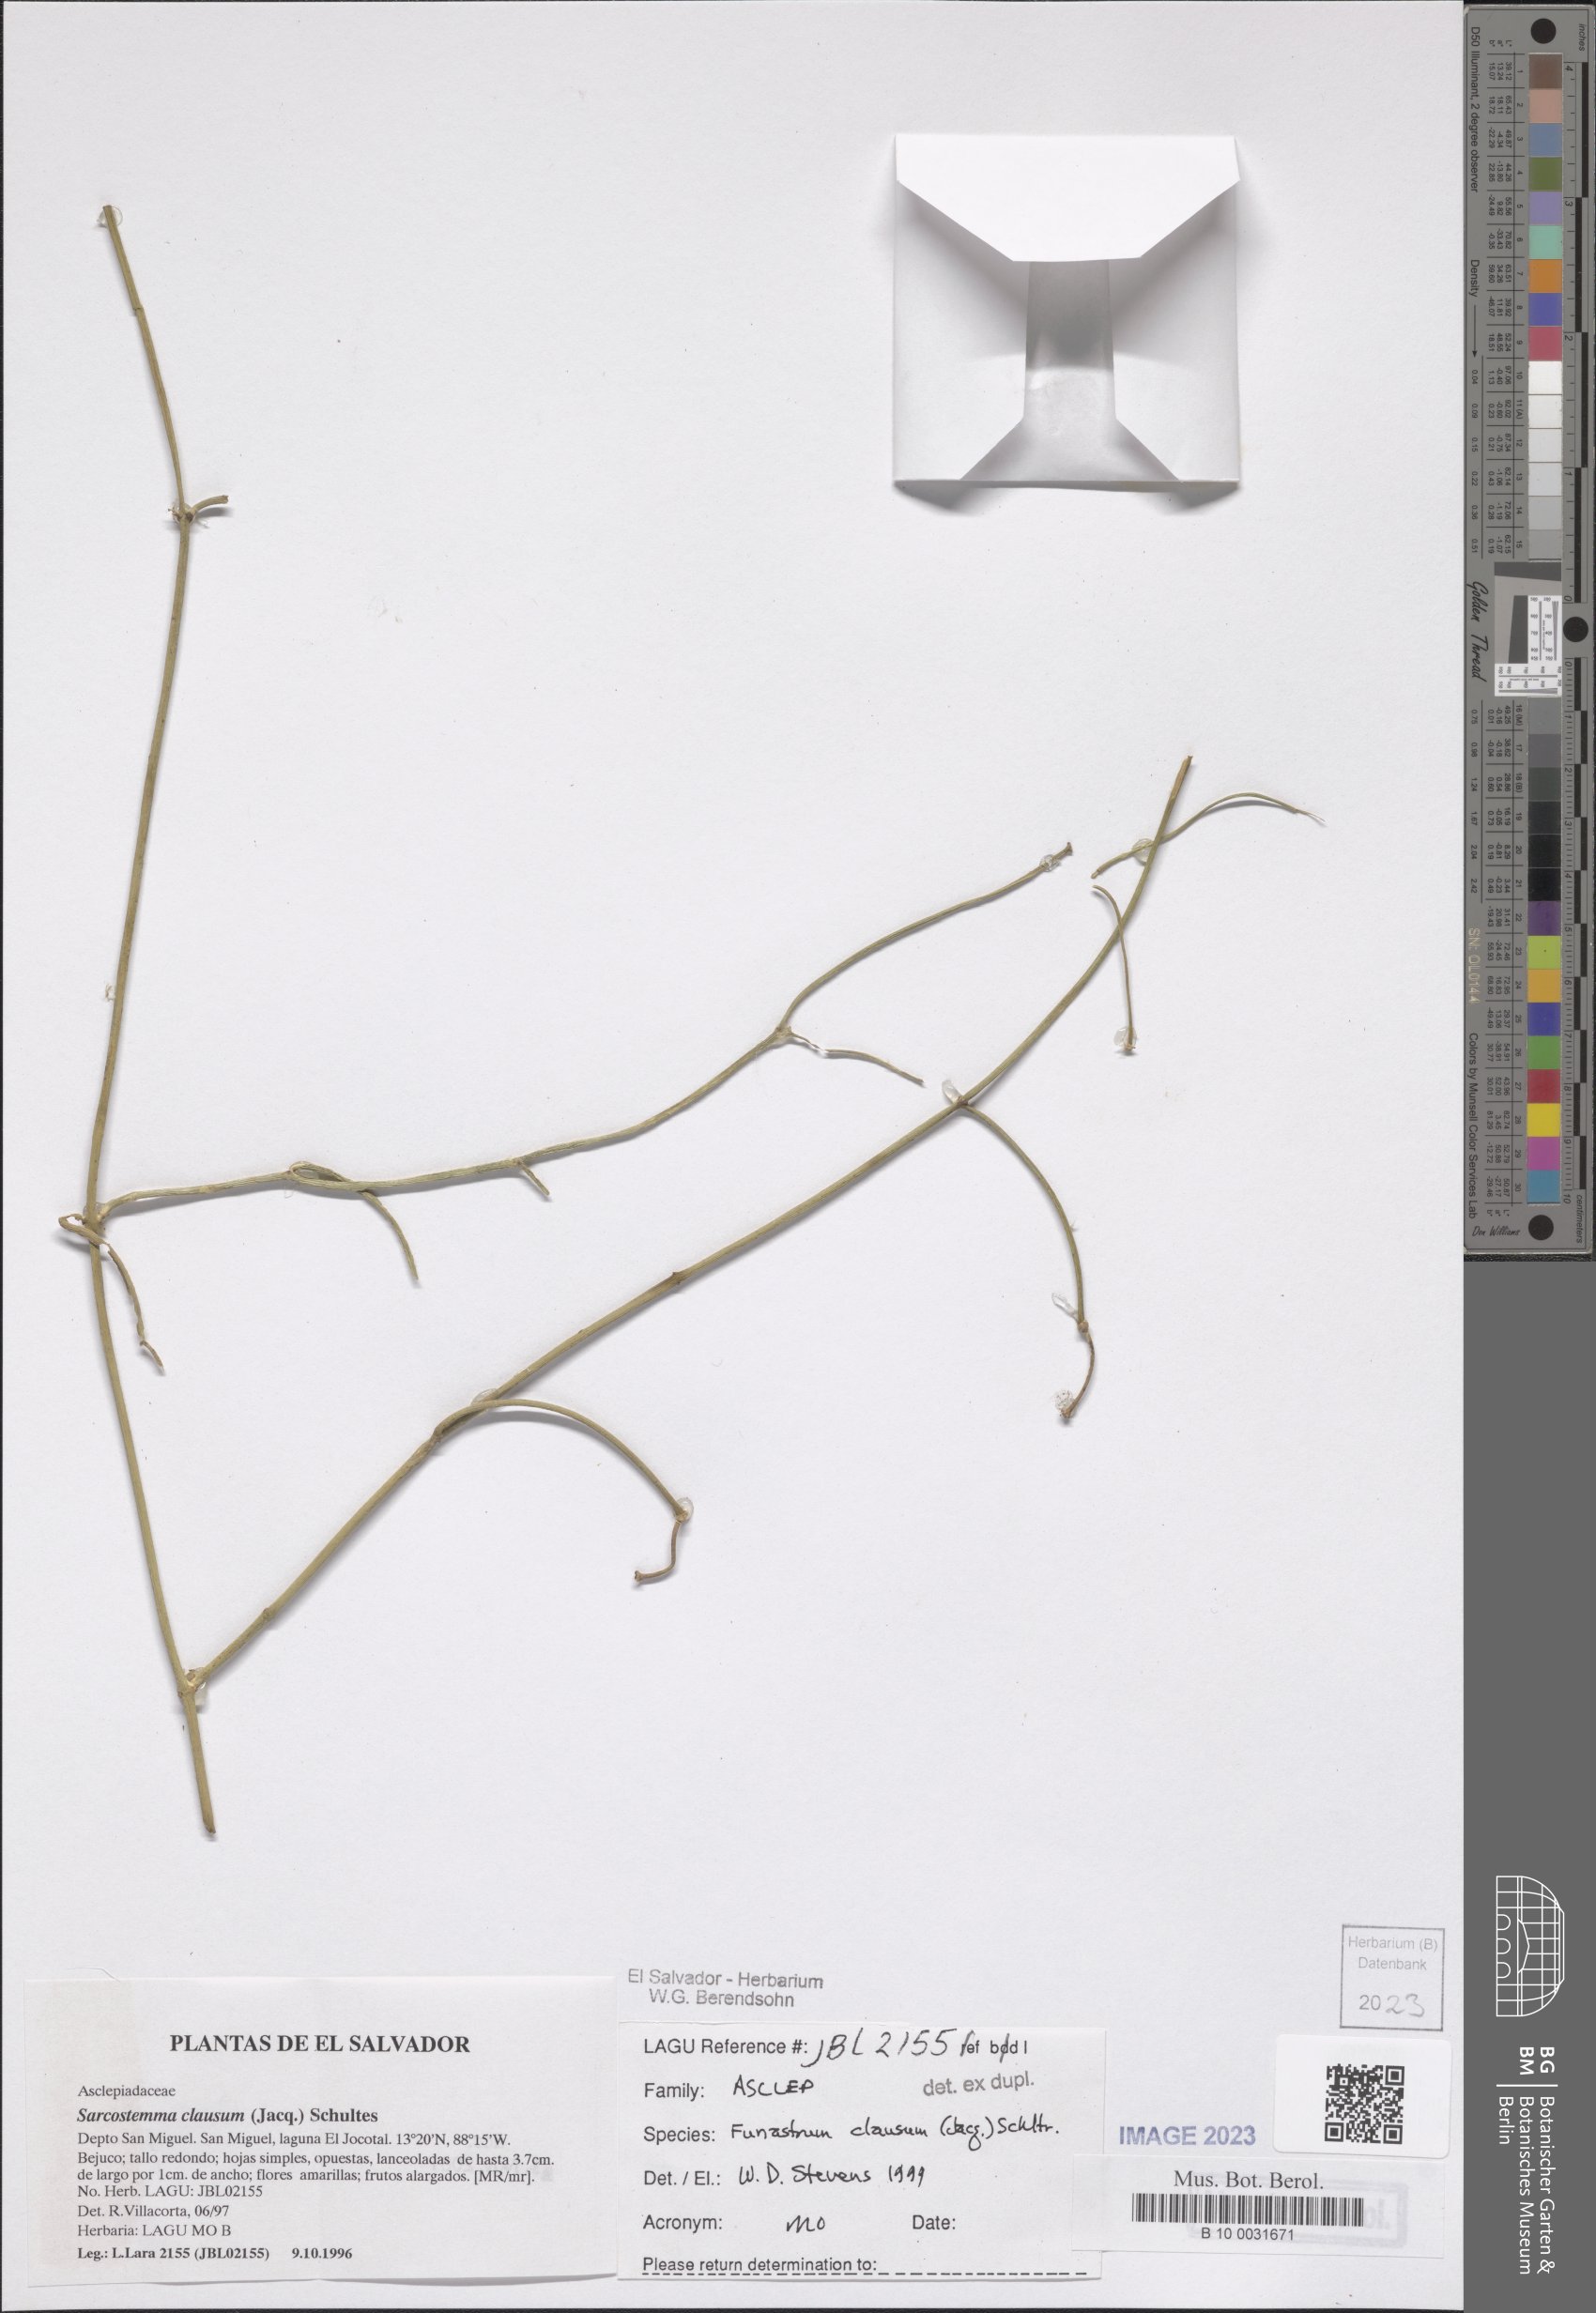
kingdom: Plantae
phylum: Tracheophyta
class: Magnoliopsida
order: Gentianales
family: Apocynaceae
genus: Funastrum
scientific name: Funastrum clausum
